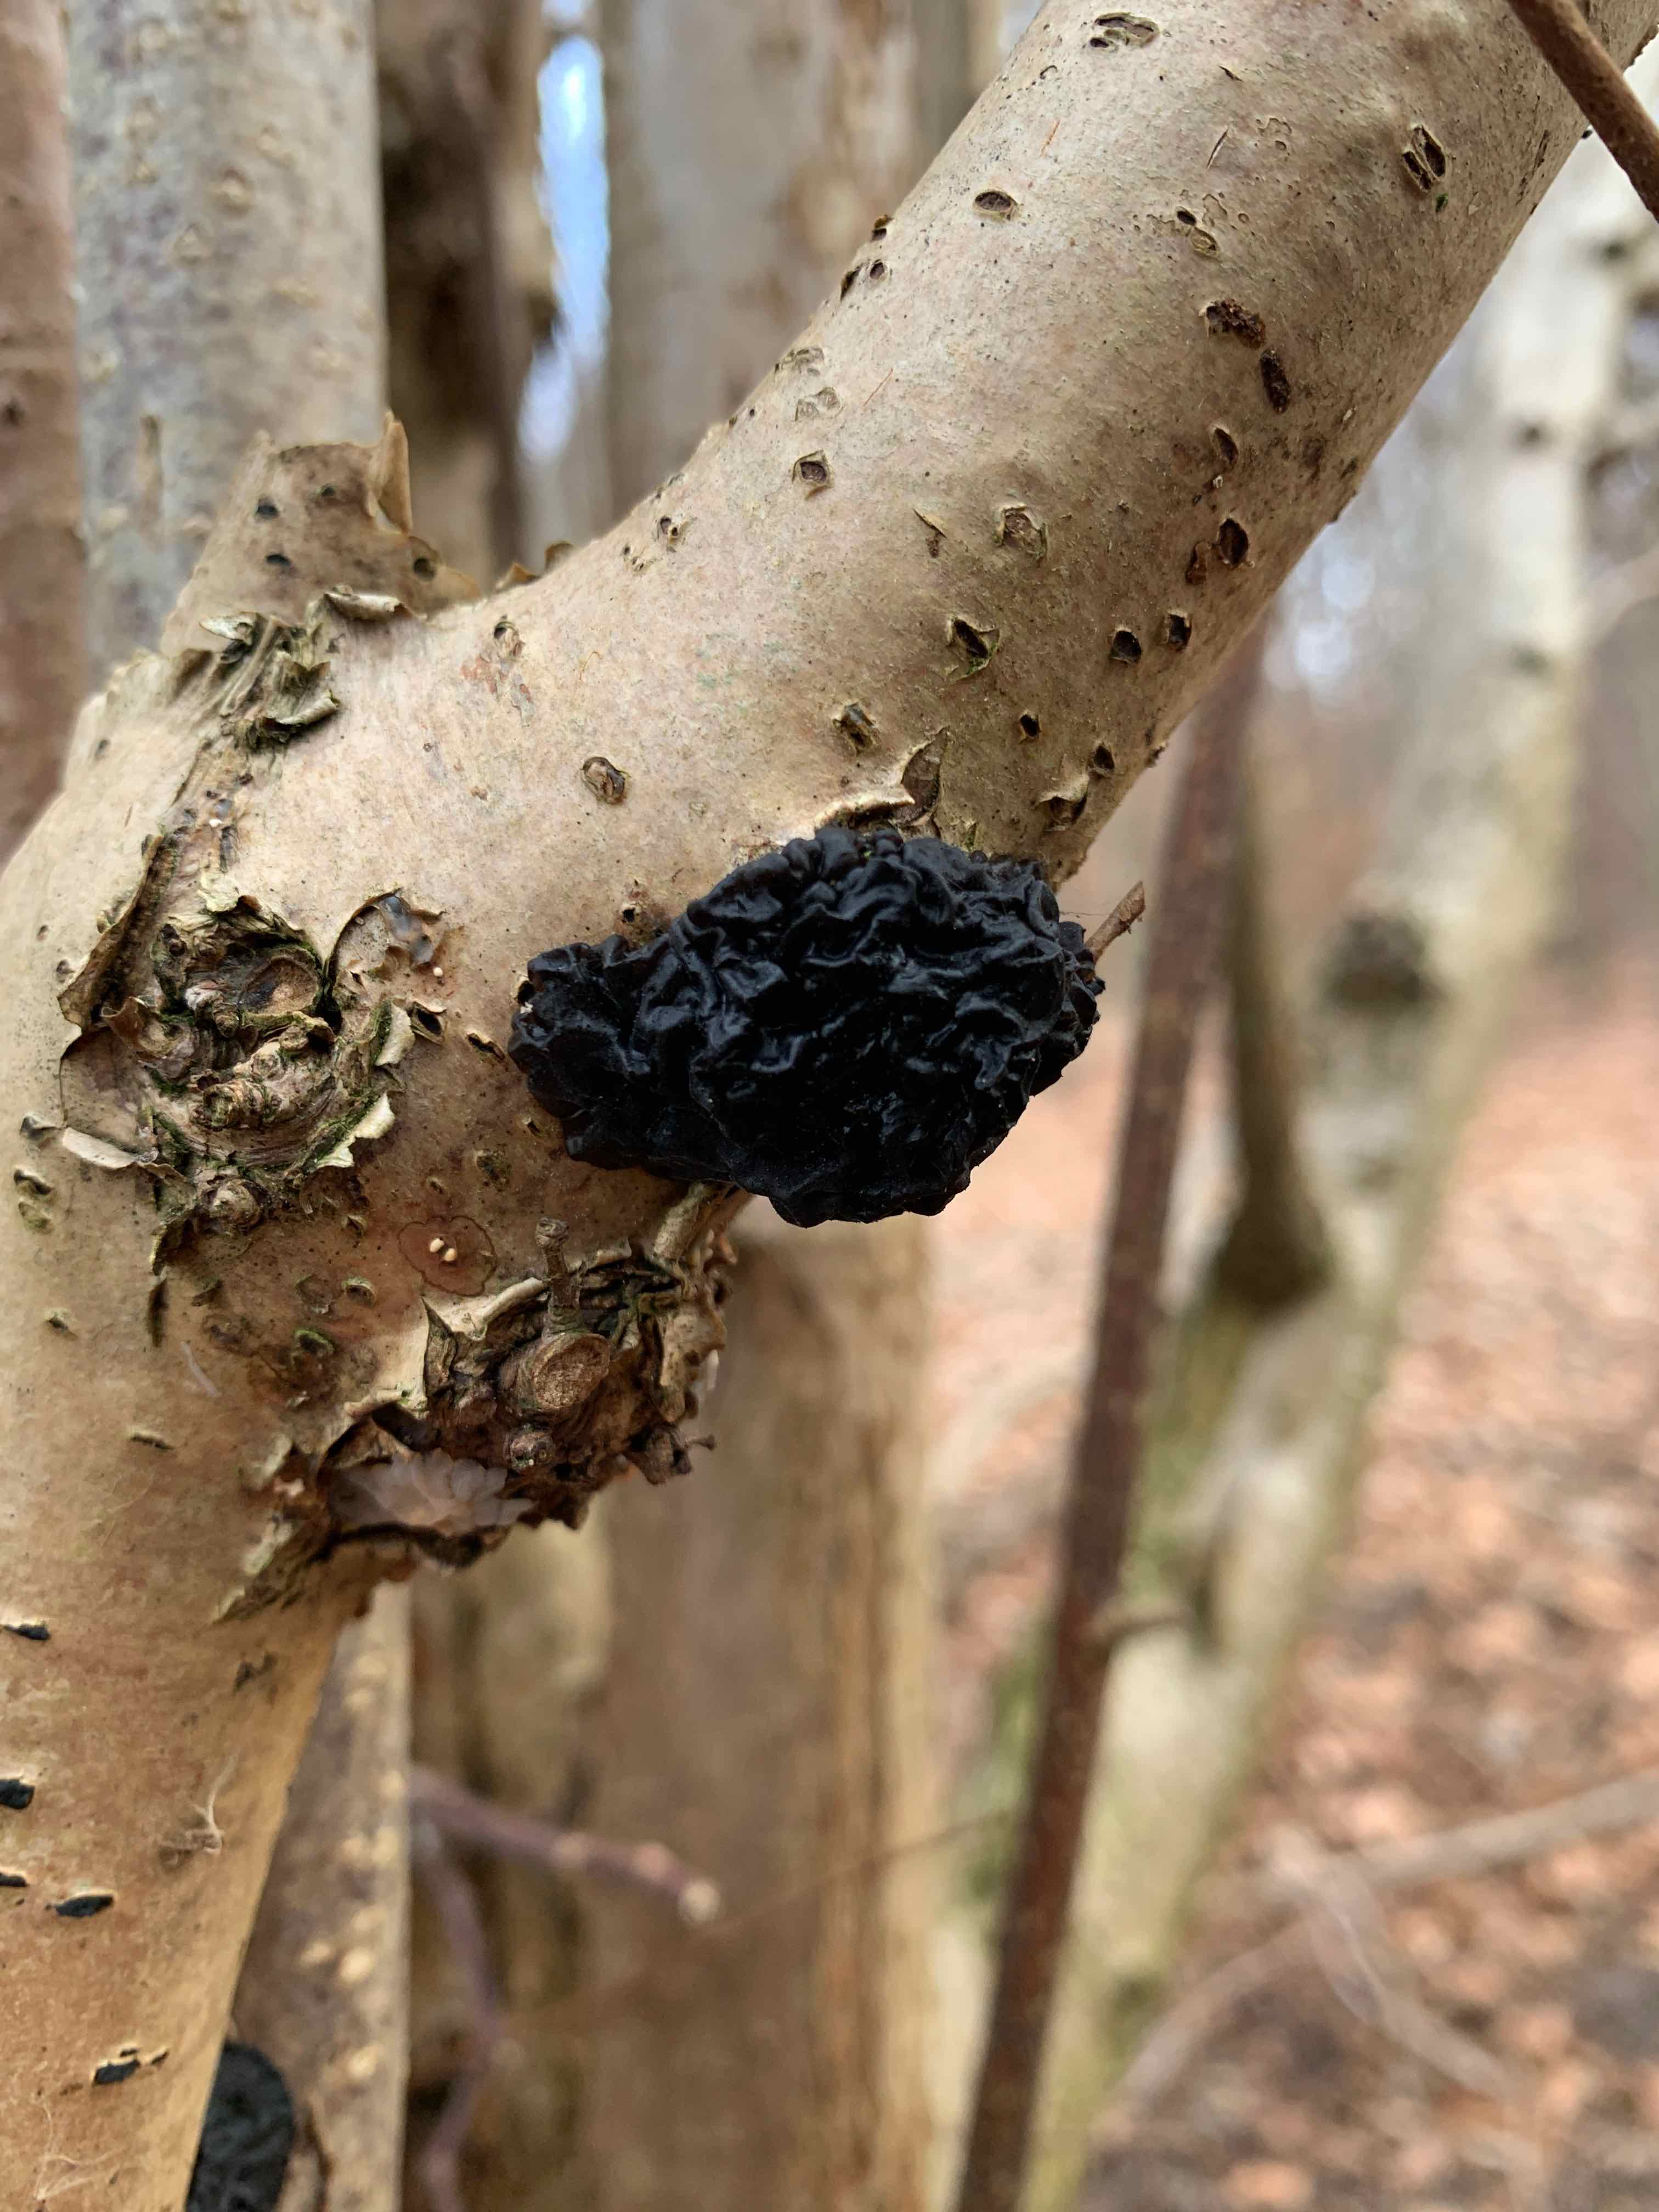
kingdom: Fungi
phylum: Basidiomycota
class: Agaricomycetes
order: Auriculariales
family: Auriculariaceae
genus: Exidia
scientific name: Exidia nigricans
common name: almindelig bævretop
